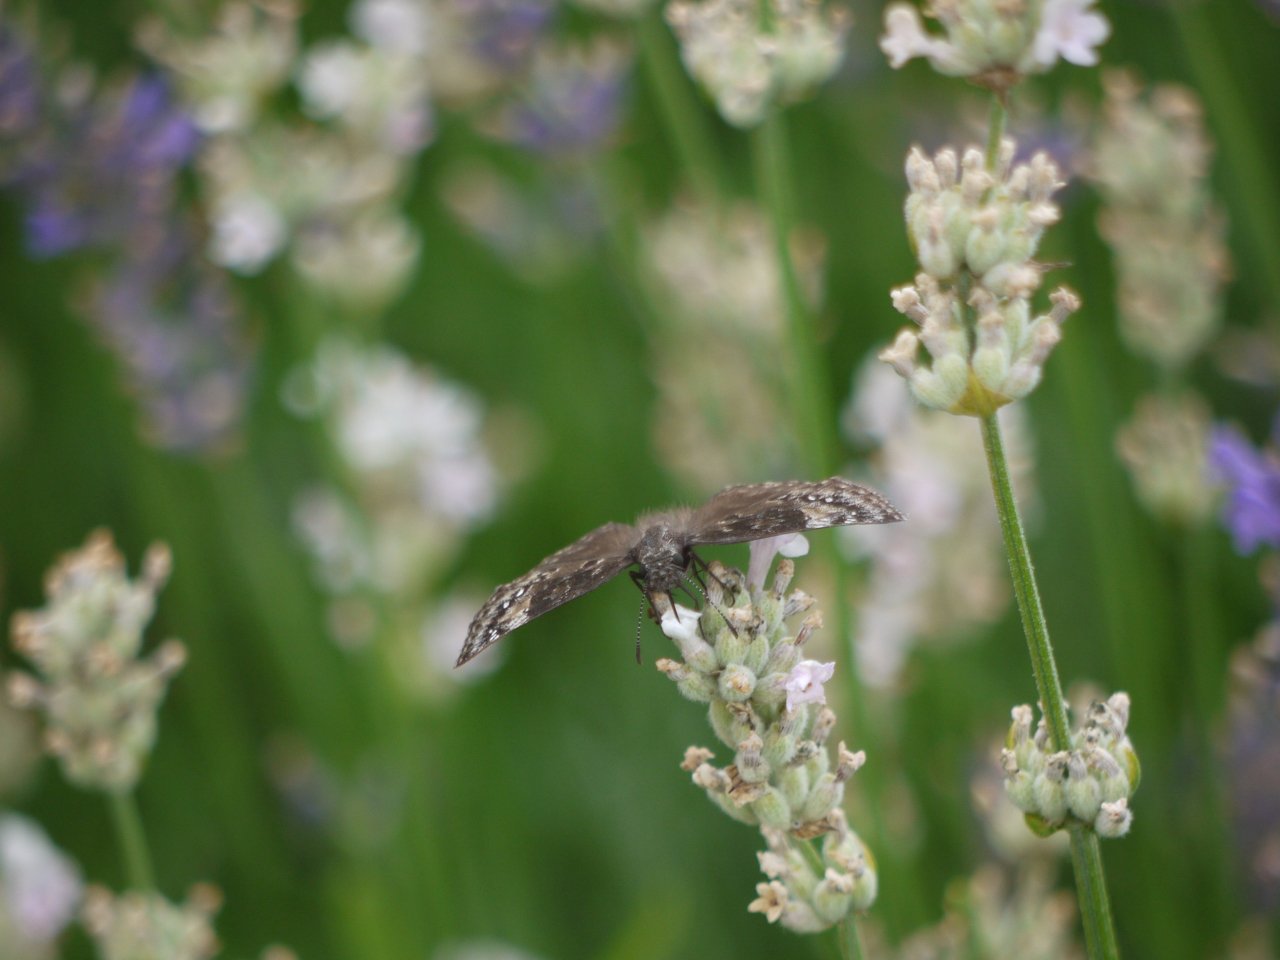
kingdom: Animalia
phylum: Arthropoda
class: Insecta
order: Lepidoptera
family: Hesperiidae
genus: Gesta
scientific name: Gesta
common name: Wild Indigo Duskywing
